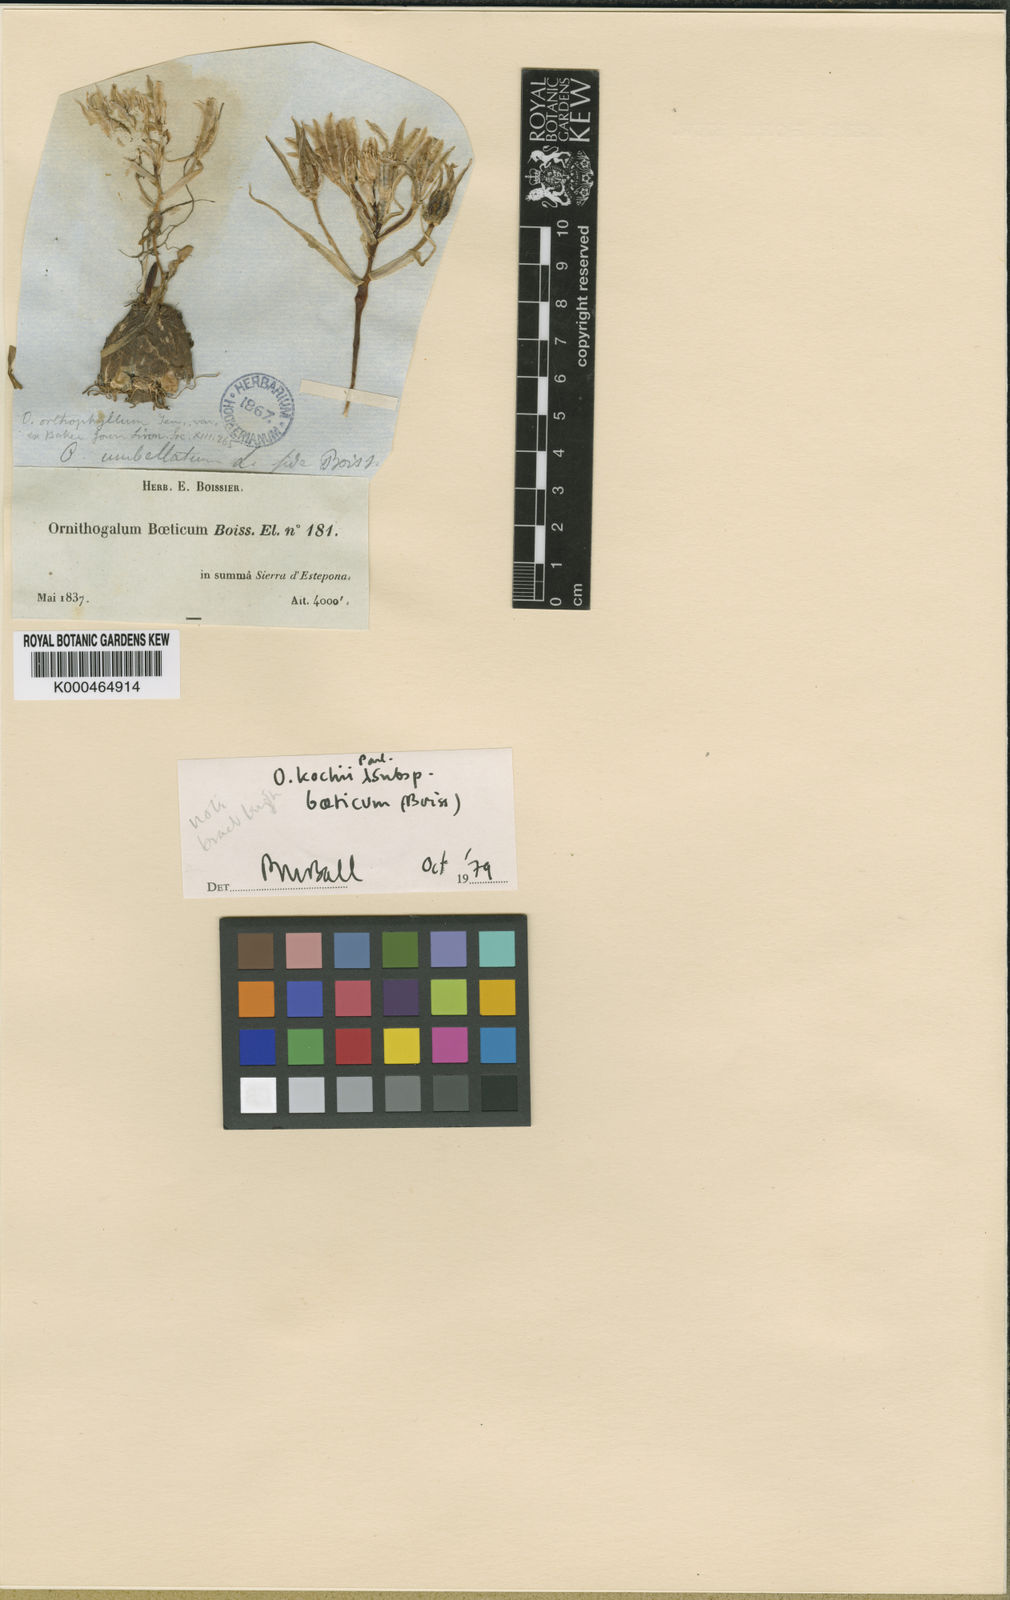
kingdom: Plantae
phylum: Tracheophyta
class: Liliopsida
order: Asparagales
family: Asparagaceae
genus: Ornithogalum
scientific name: Ornithogalum orthophyllum
